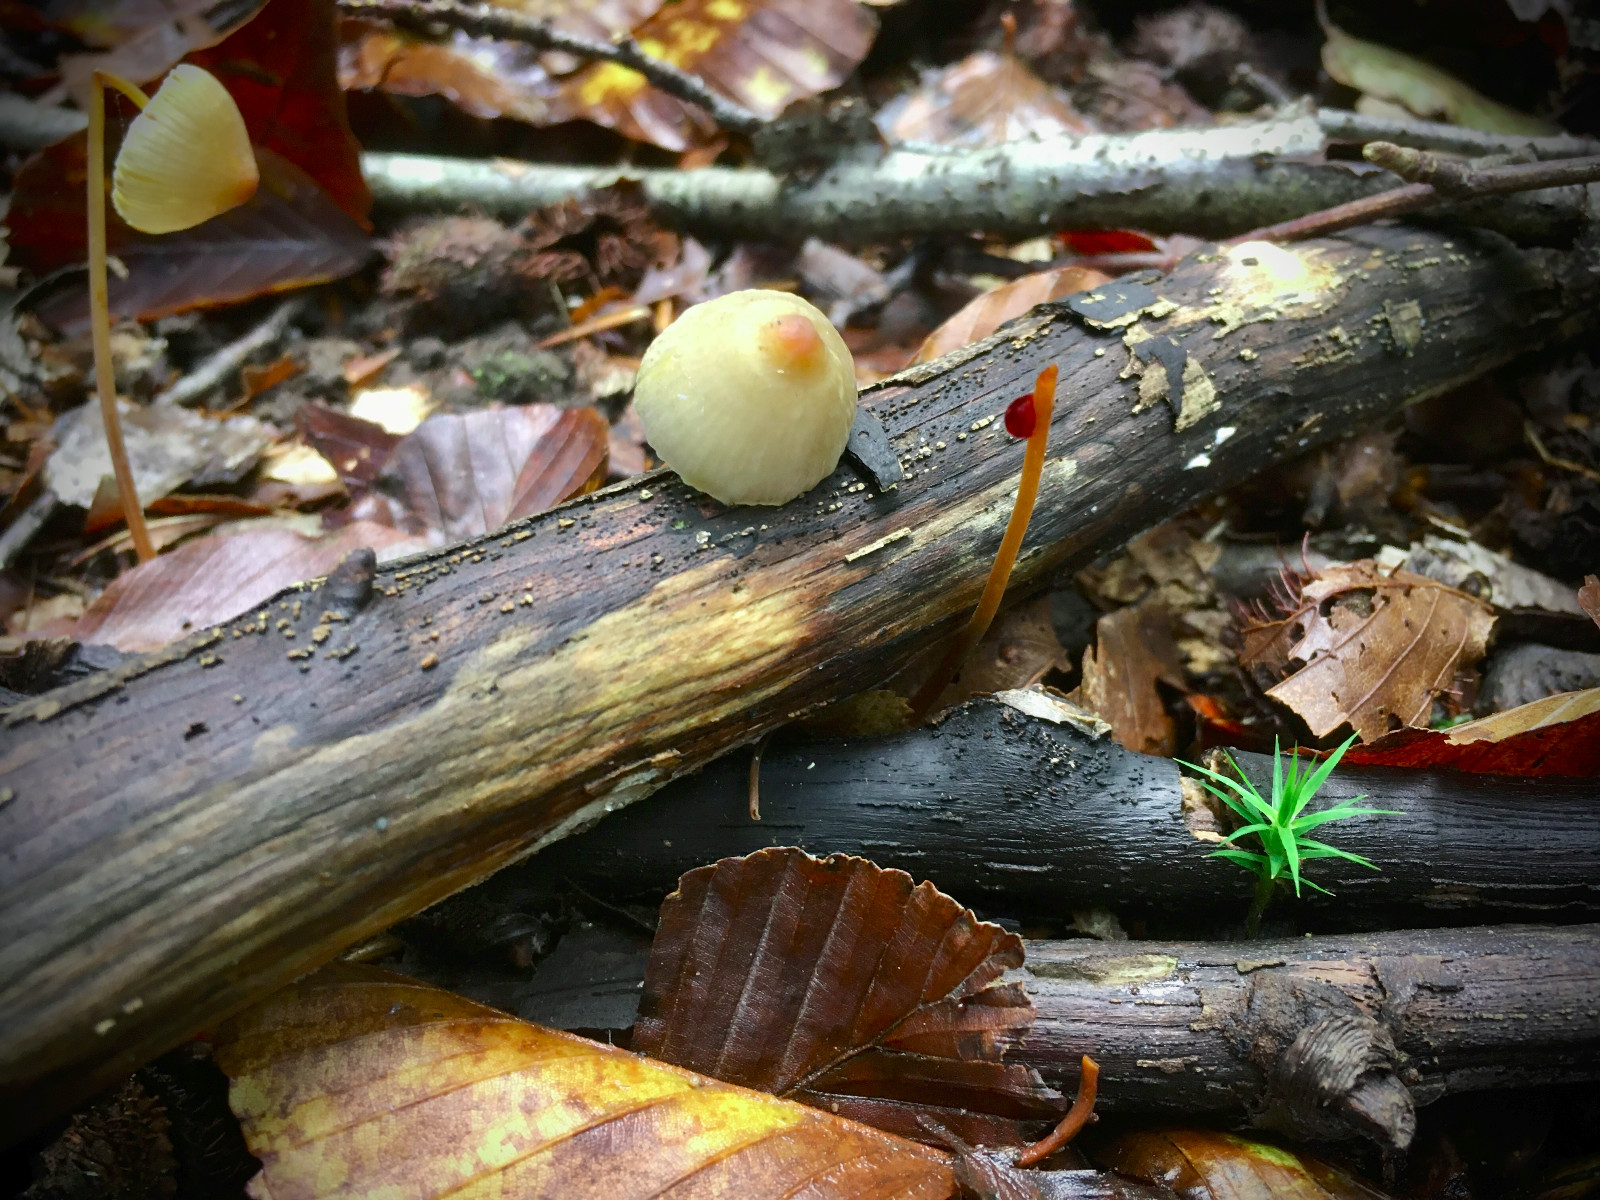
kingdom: Fungi
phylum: Basidiomycota
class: Agaricomycetes
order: Agaricales
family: Mycenaceae
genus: Mycena
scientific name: Mycena crocata
